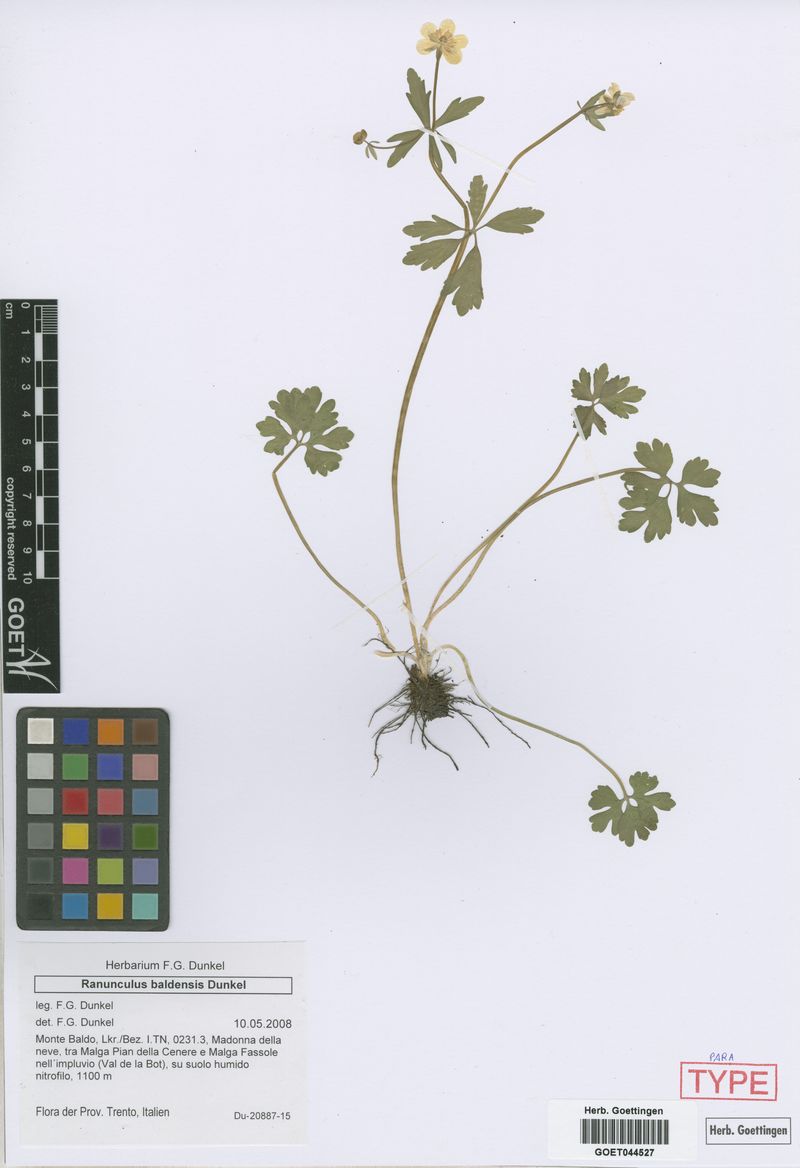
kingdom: Plantae
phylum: Tracheophyta
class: Magnoliopsida
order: Ranunculales
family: Ranunculaceae
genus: Ranunculus
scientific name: Ranunculus baldensis
